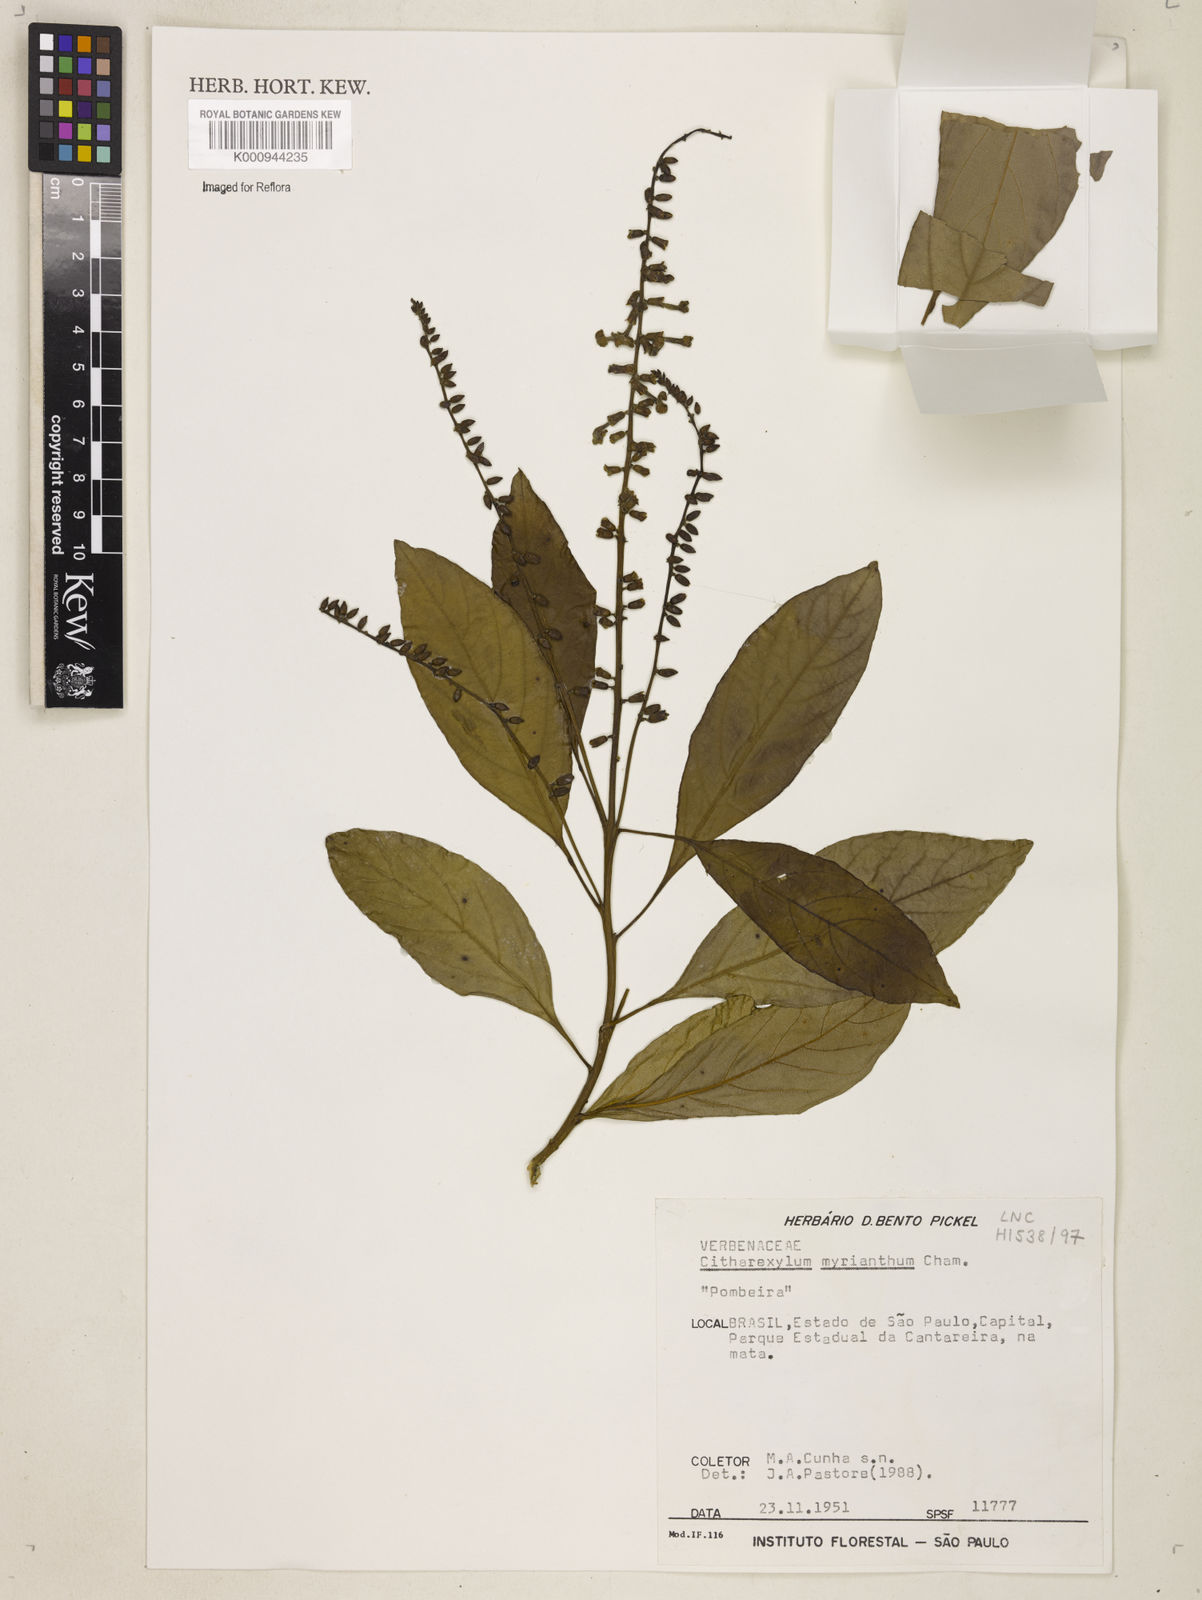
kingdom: Plantae
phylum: Tracheophyta
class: Magnoliopsida
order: Lamiales
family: Verbenaceae
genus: Citharexylum
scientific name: Citharexylum myrianthum
